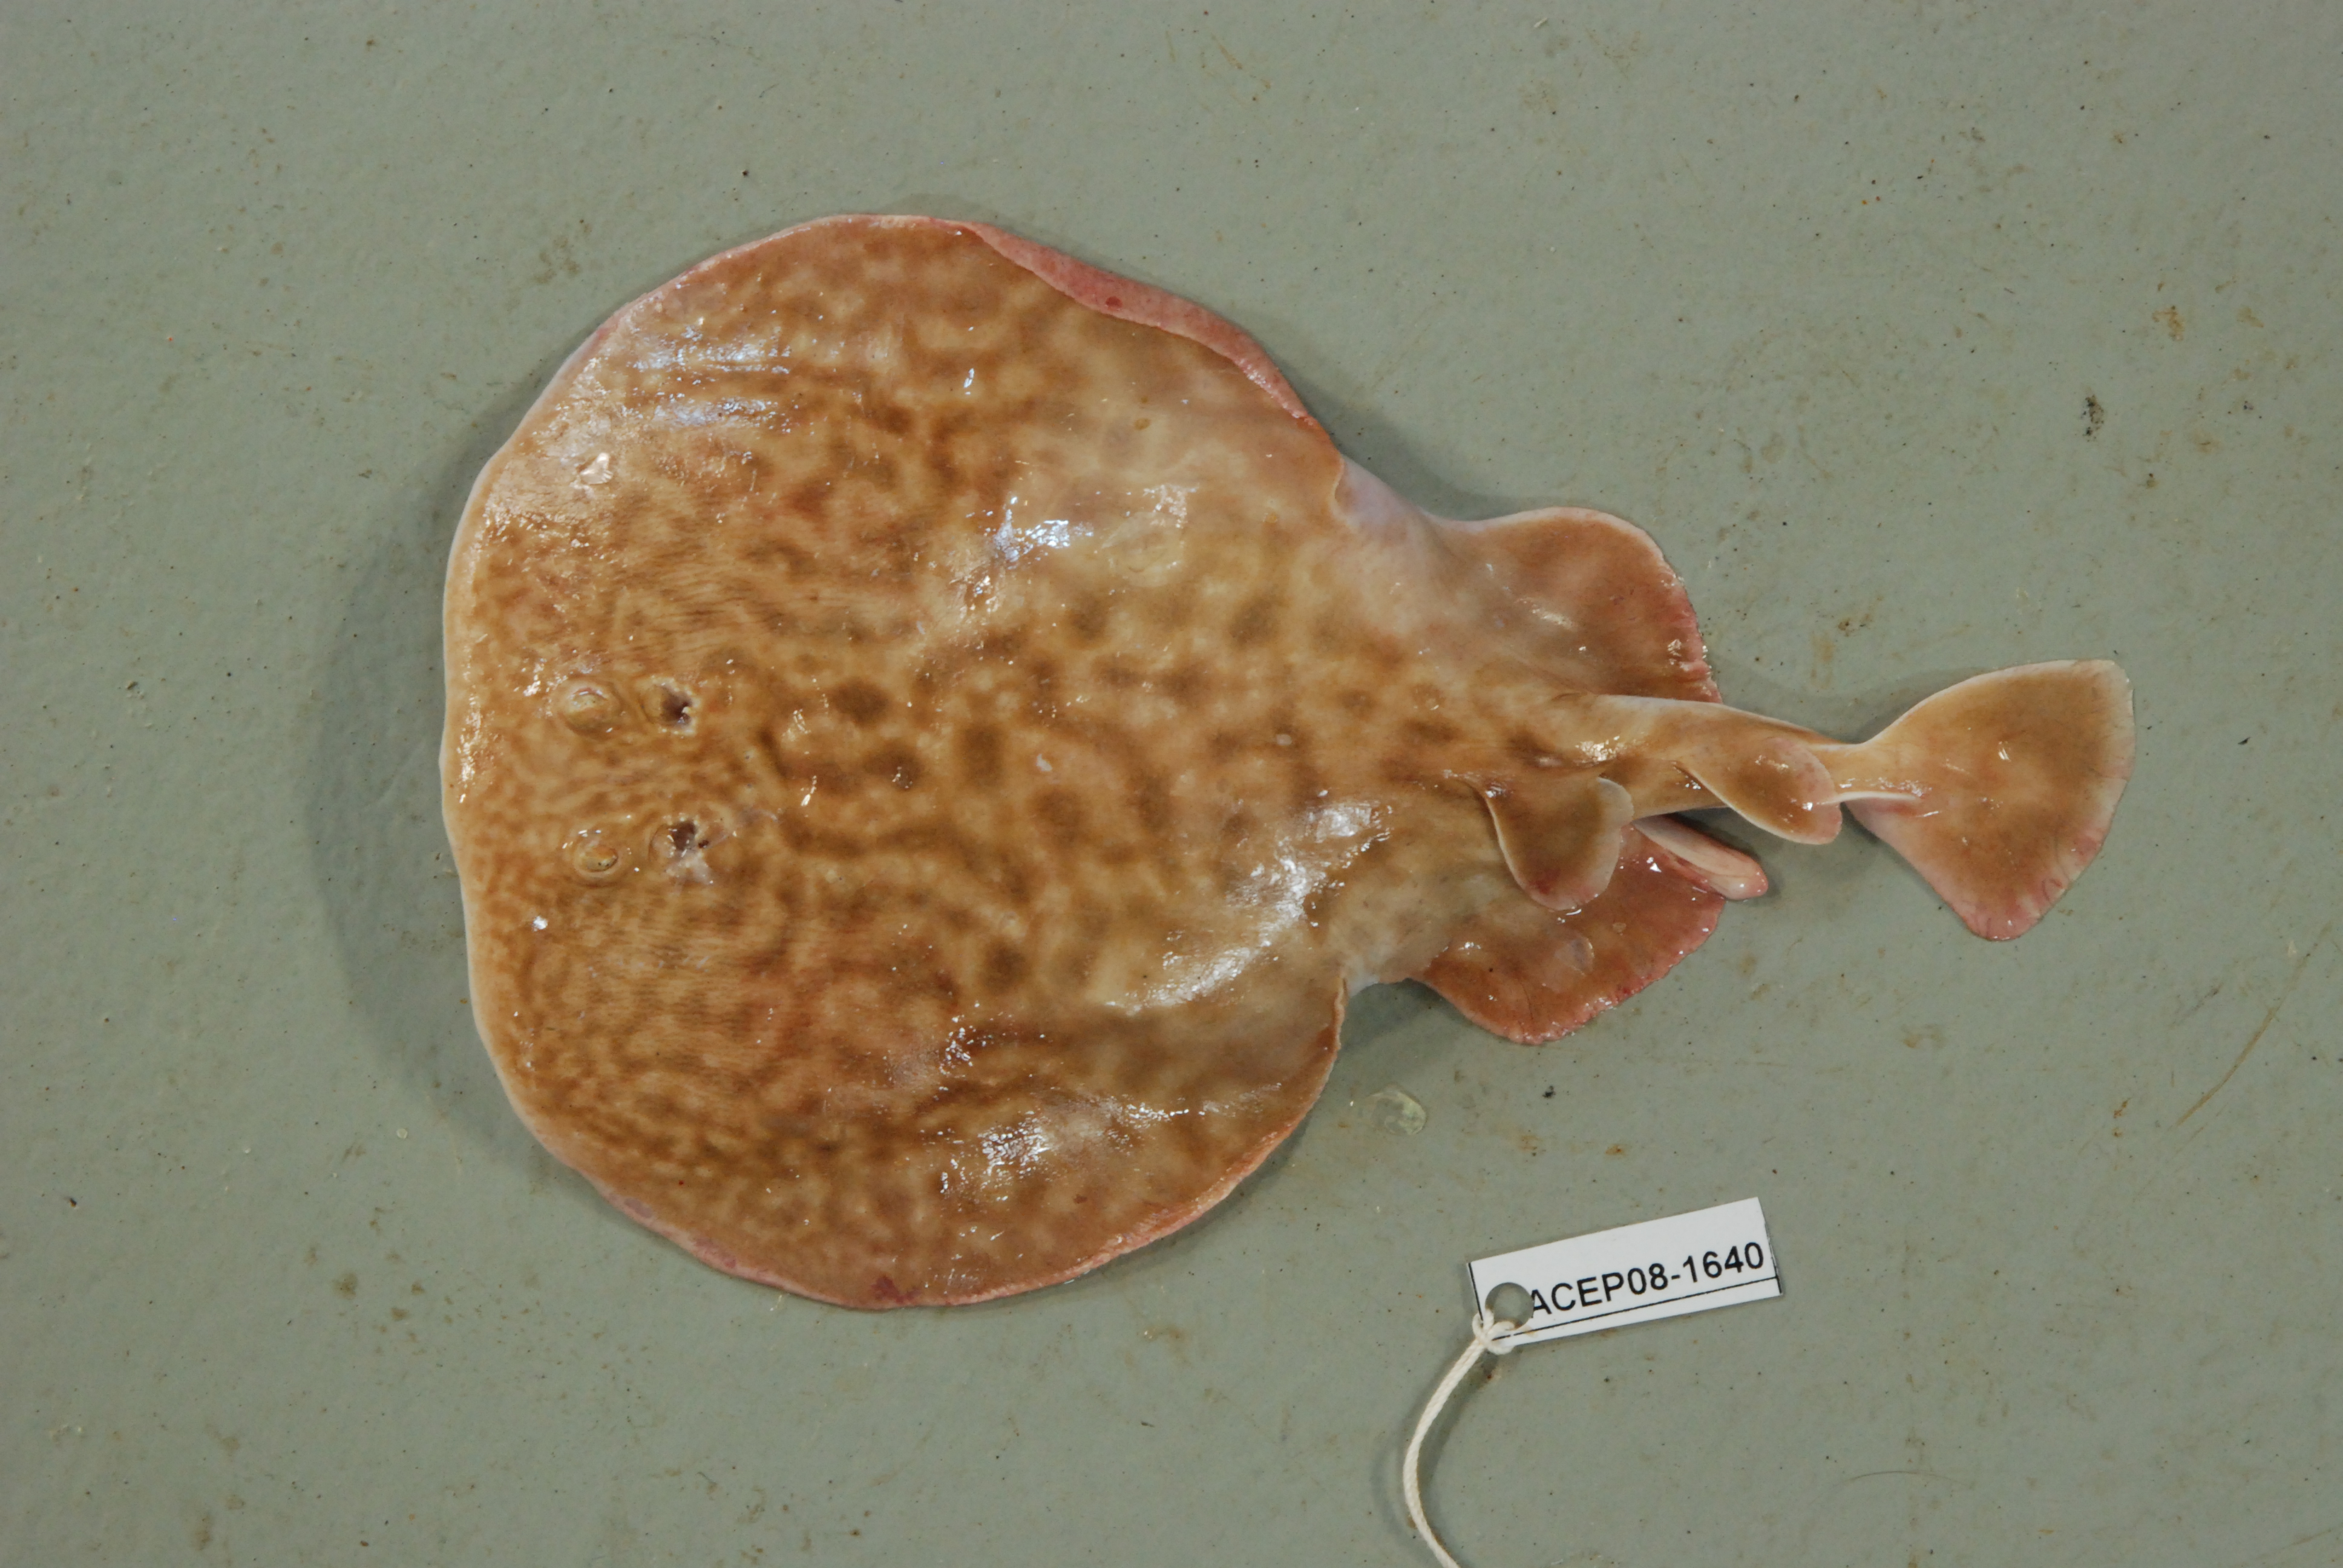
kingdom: Animalia
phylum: Chordata
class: Elasmobranchii
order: Torpediniformes
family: Torpedinidae
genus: Torpedo
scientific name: Torpedo panthera
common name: Leopard torpedo
